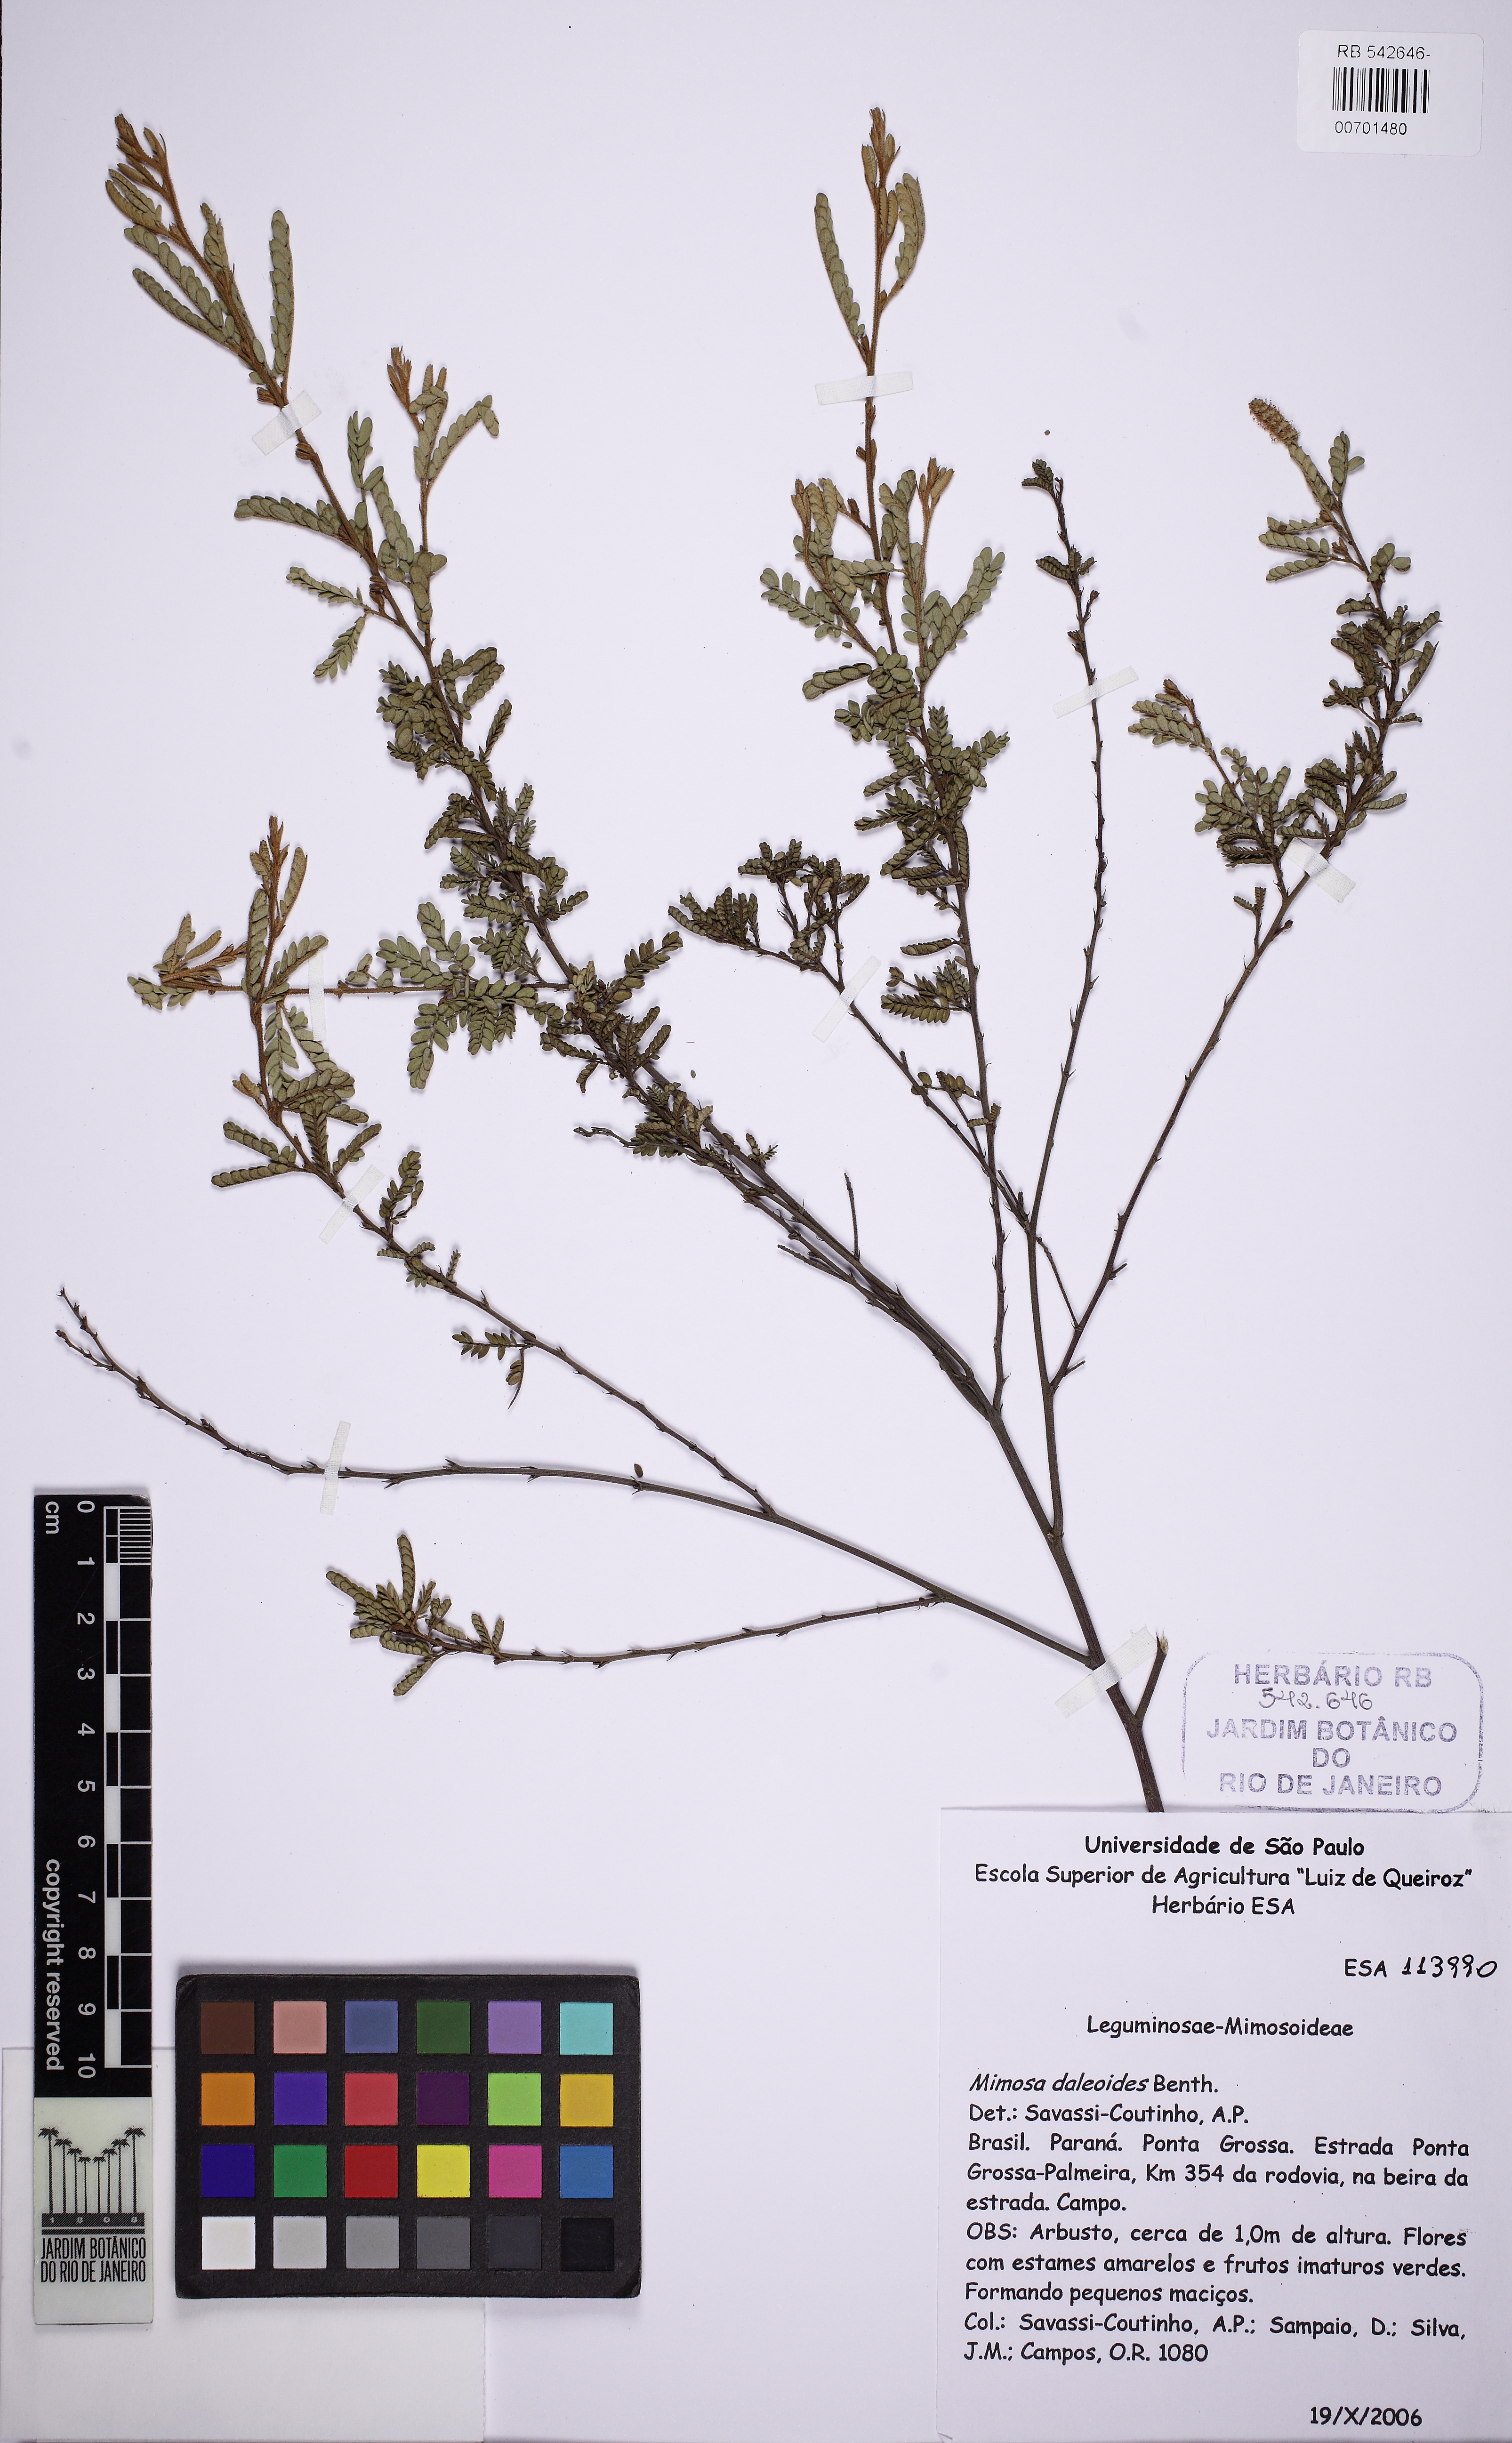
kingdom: Plantae
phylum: Tracheophyta
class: Magnoliopsida
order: Fabales
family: Fabaceae
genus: Mimosa
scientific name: Mimosa daleoides
